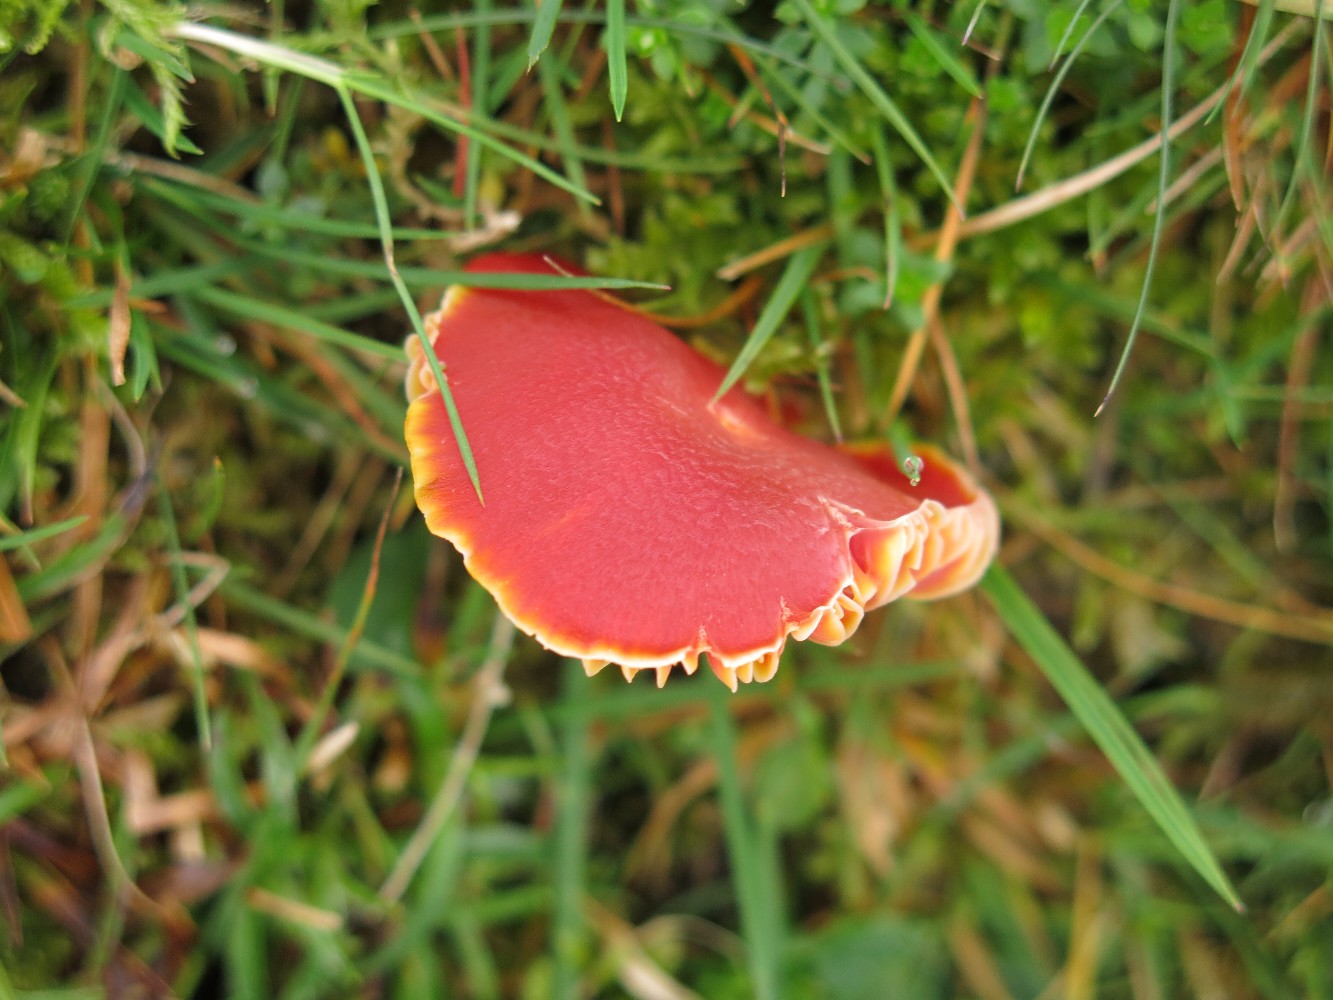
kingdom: Fungi
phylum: Basidiomycota
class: Agaricomycetes
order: Agaricales
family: Hygrophoraceae
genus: Hygrocybe
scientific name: Hygrocybe splendidissima
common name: knaldrød vokshat
